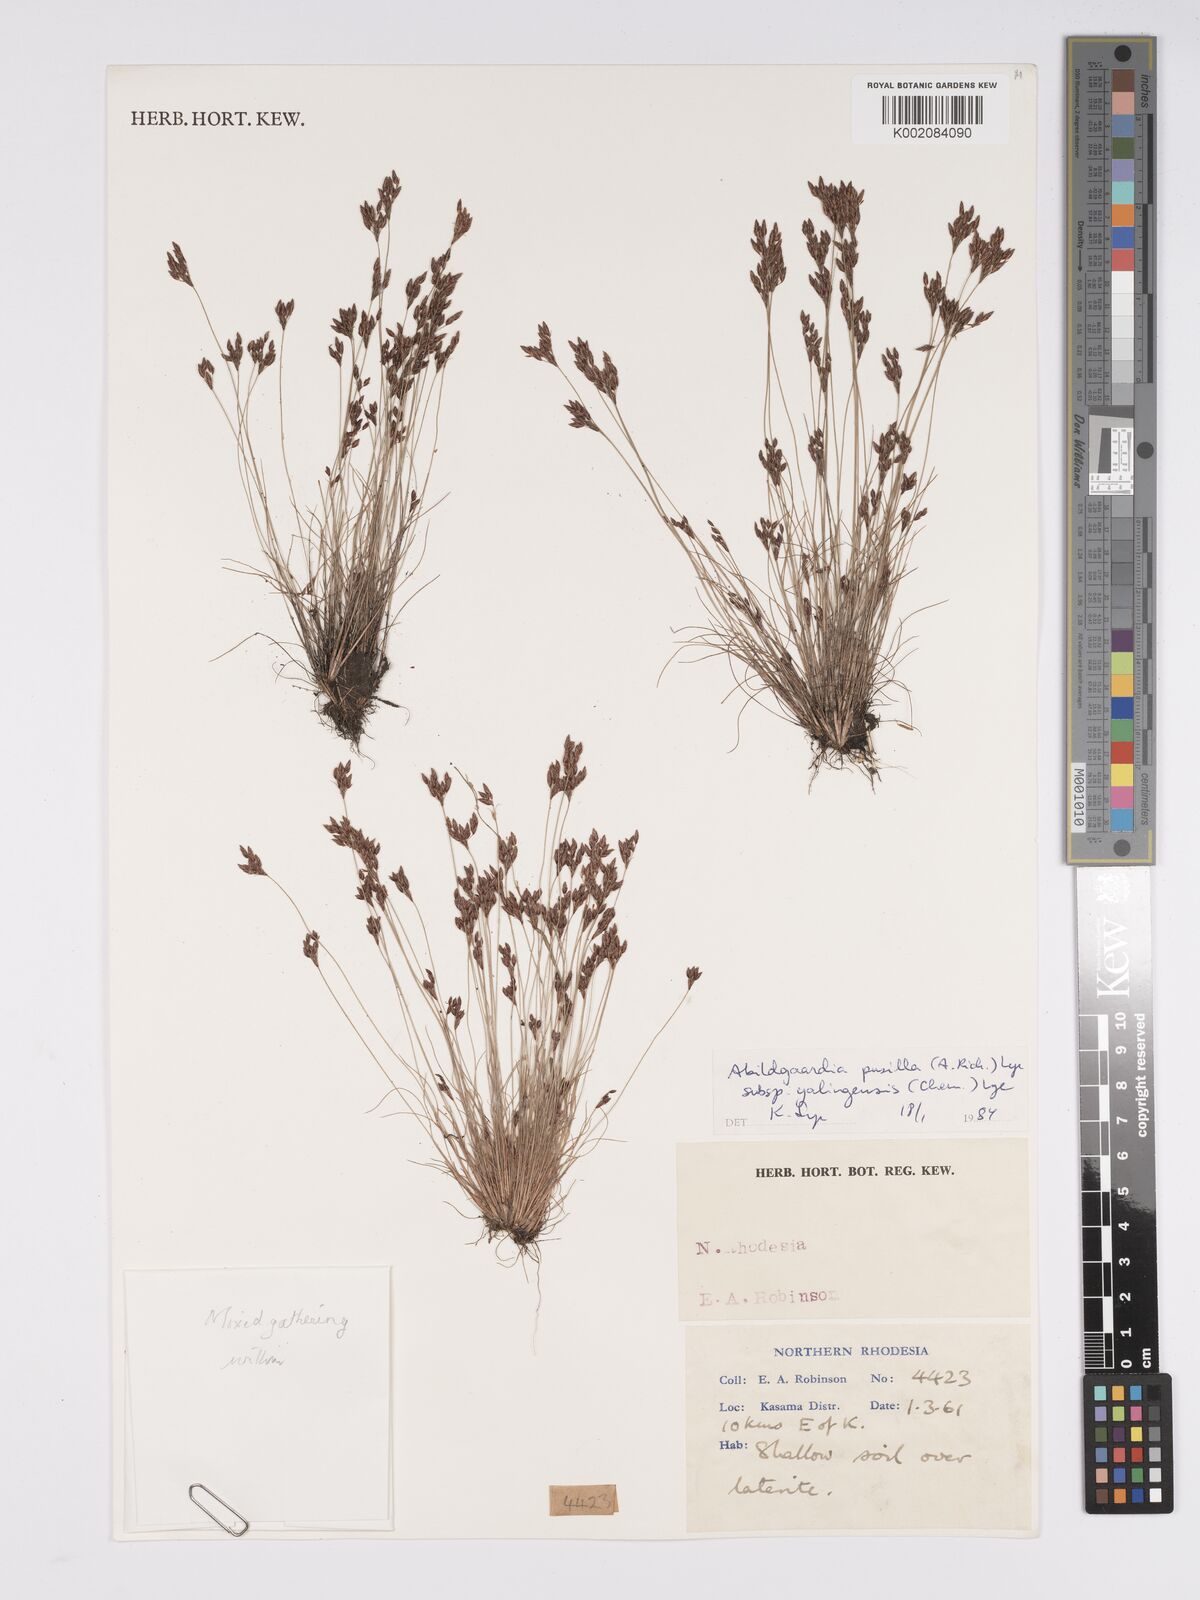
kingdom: Plantae
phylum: Tracheophyta
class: Liliopsida
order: Poales
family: Cyperaceae
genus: Bulbostylis
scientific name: Bulbostylis pusilla
